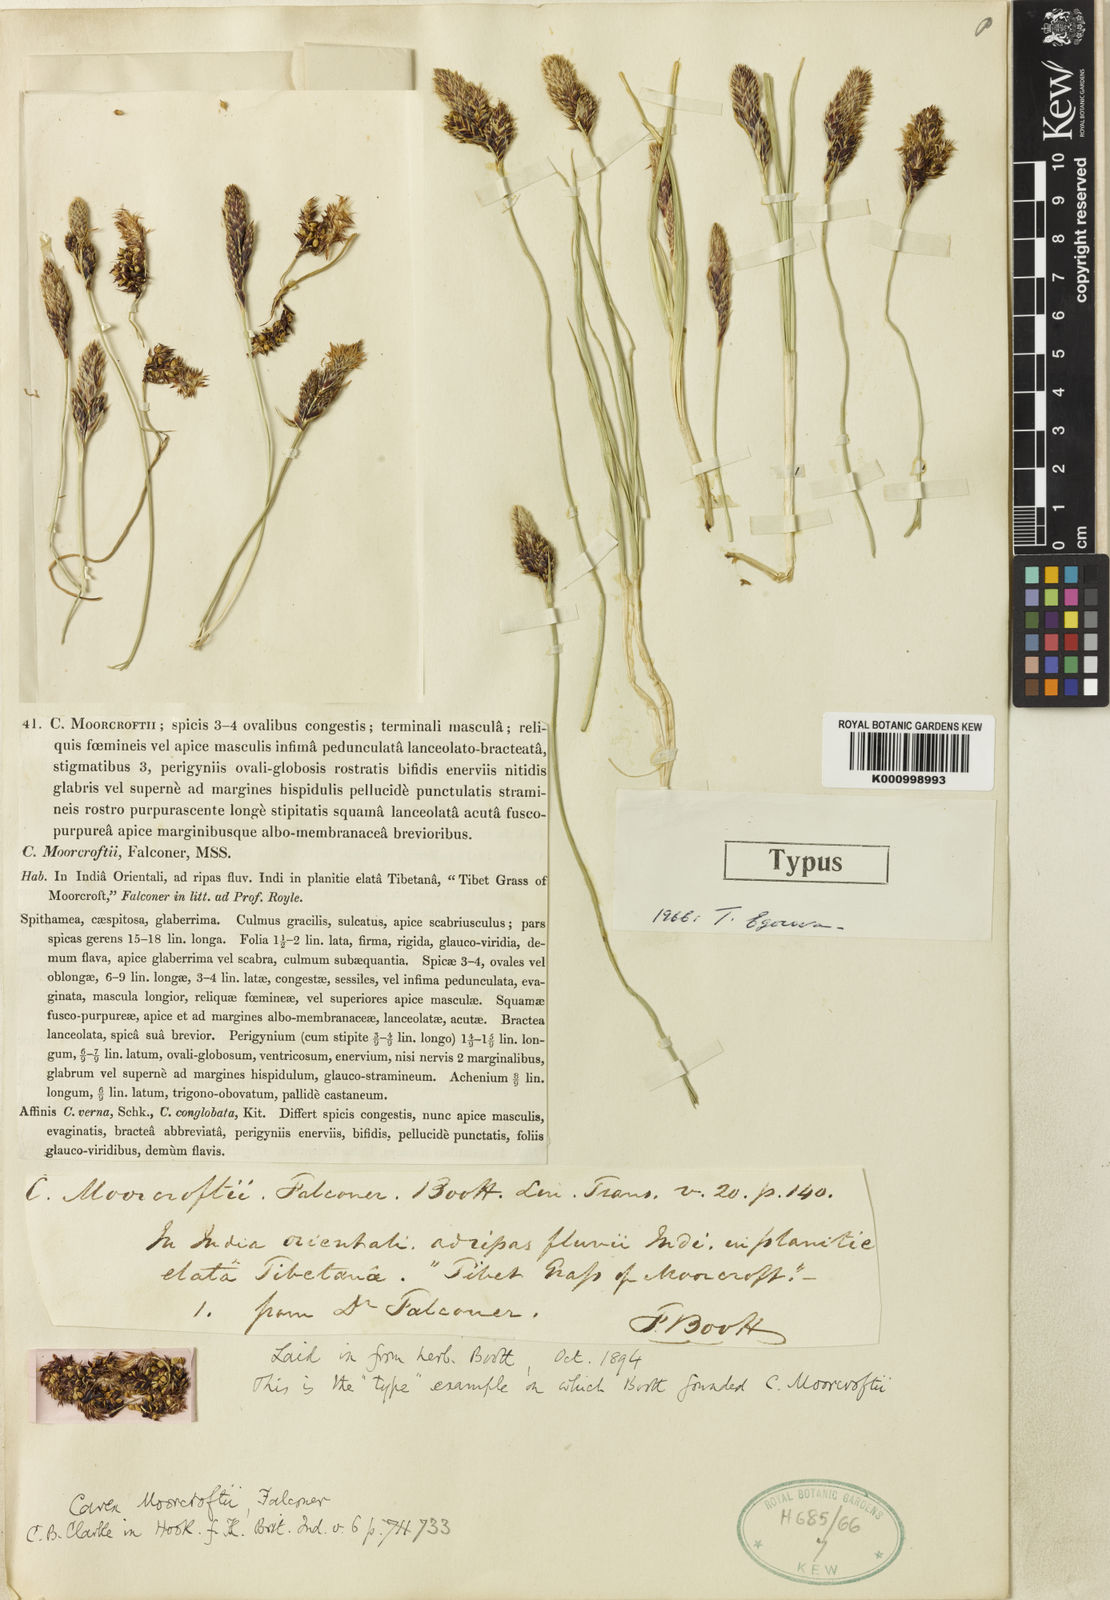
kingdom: Plantae
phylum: Tracheophyta
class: Liliopsida
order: Poales
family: Cyperaceae
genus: Carex
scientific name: Carex melanantha
